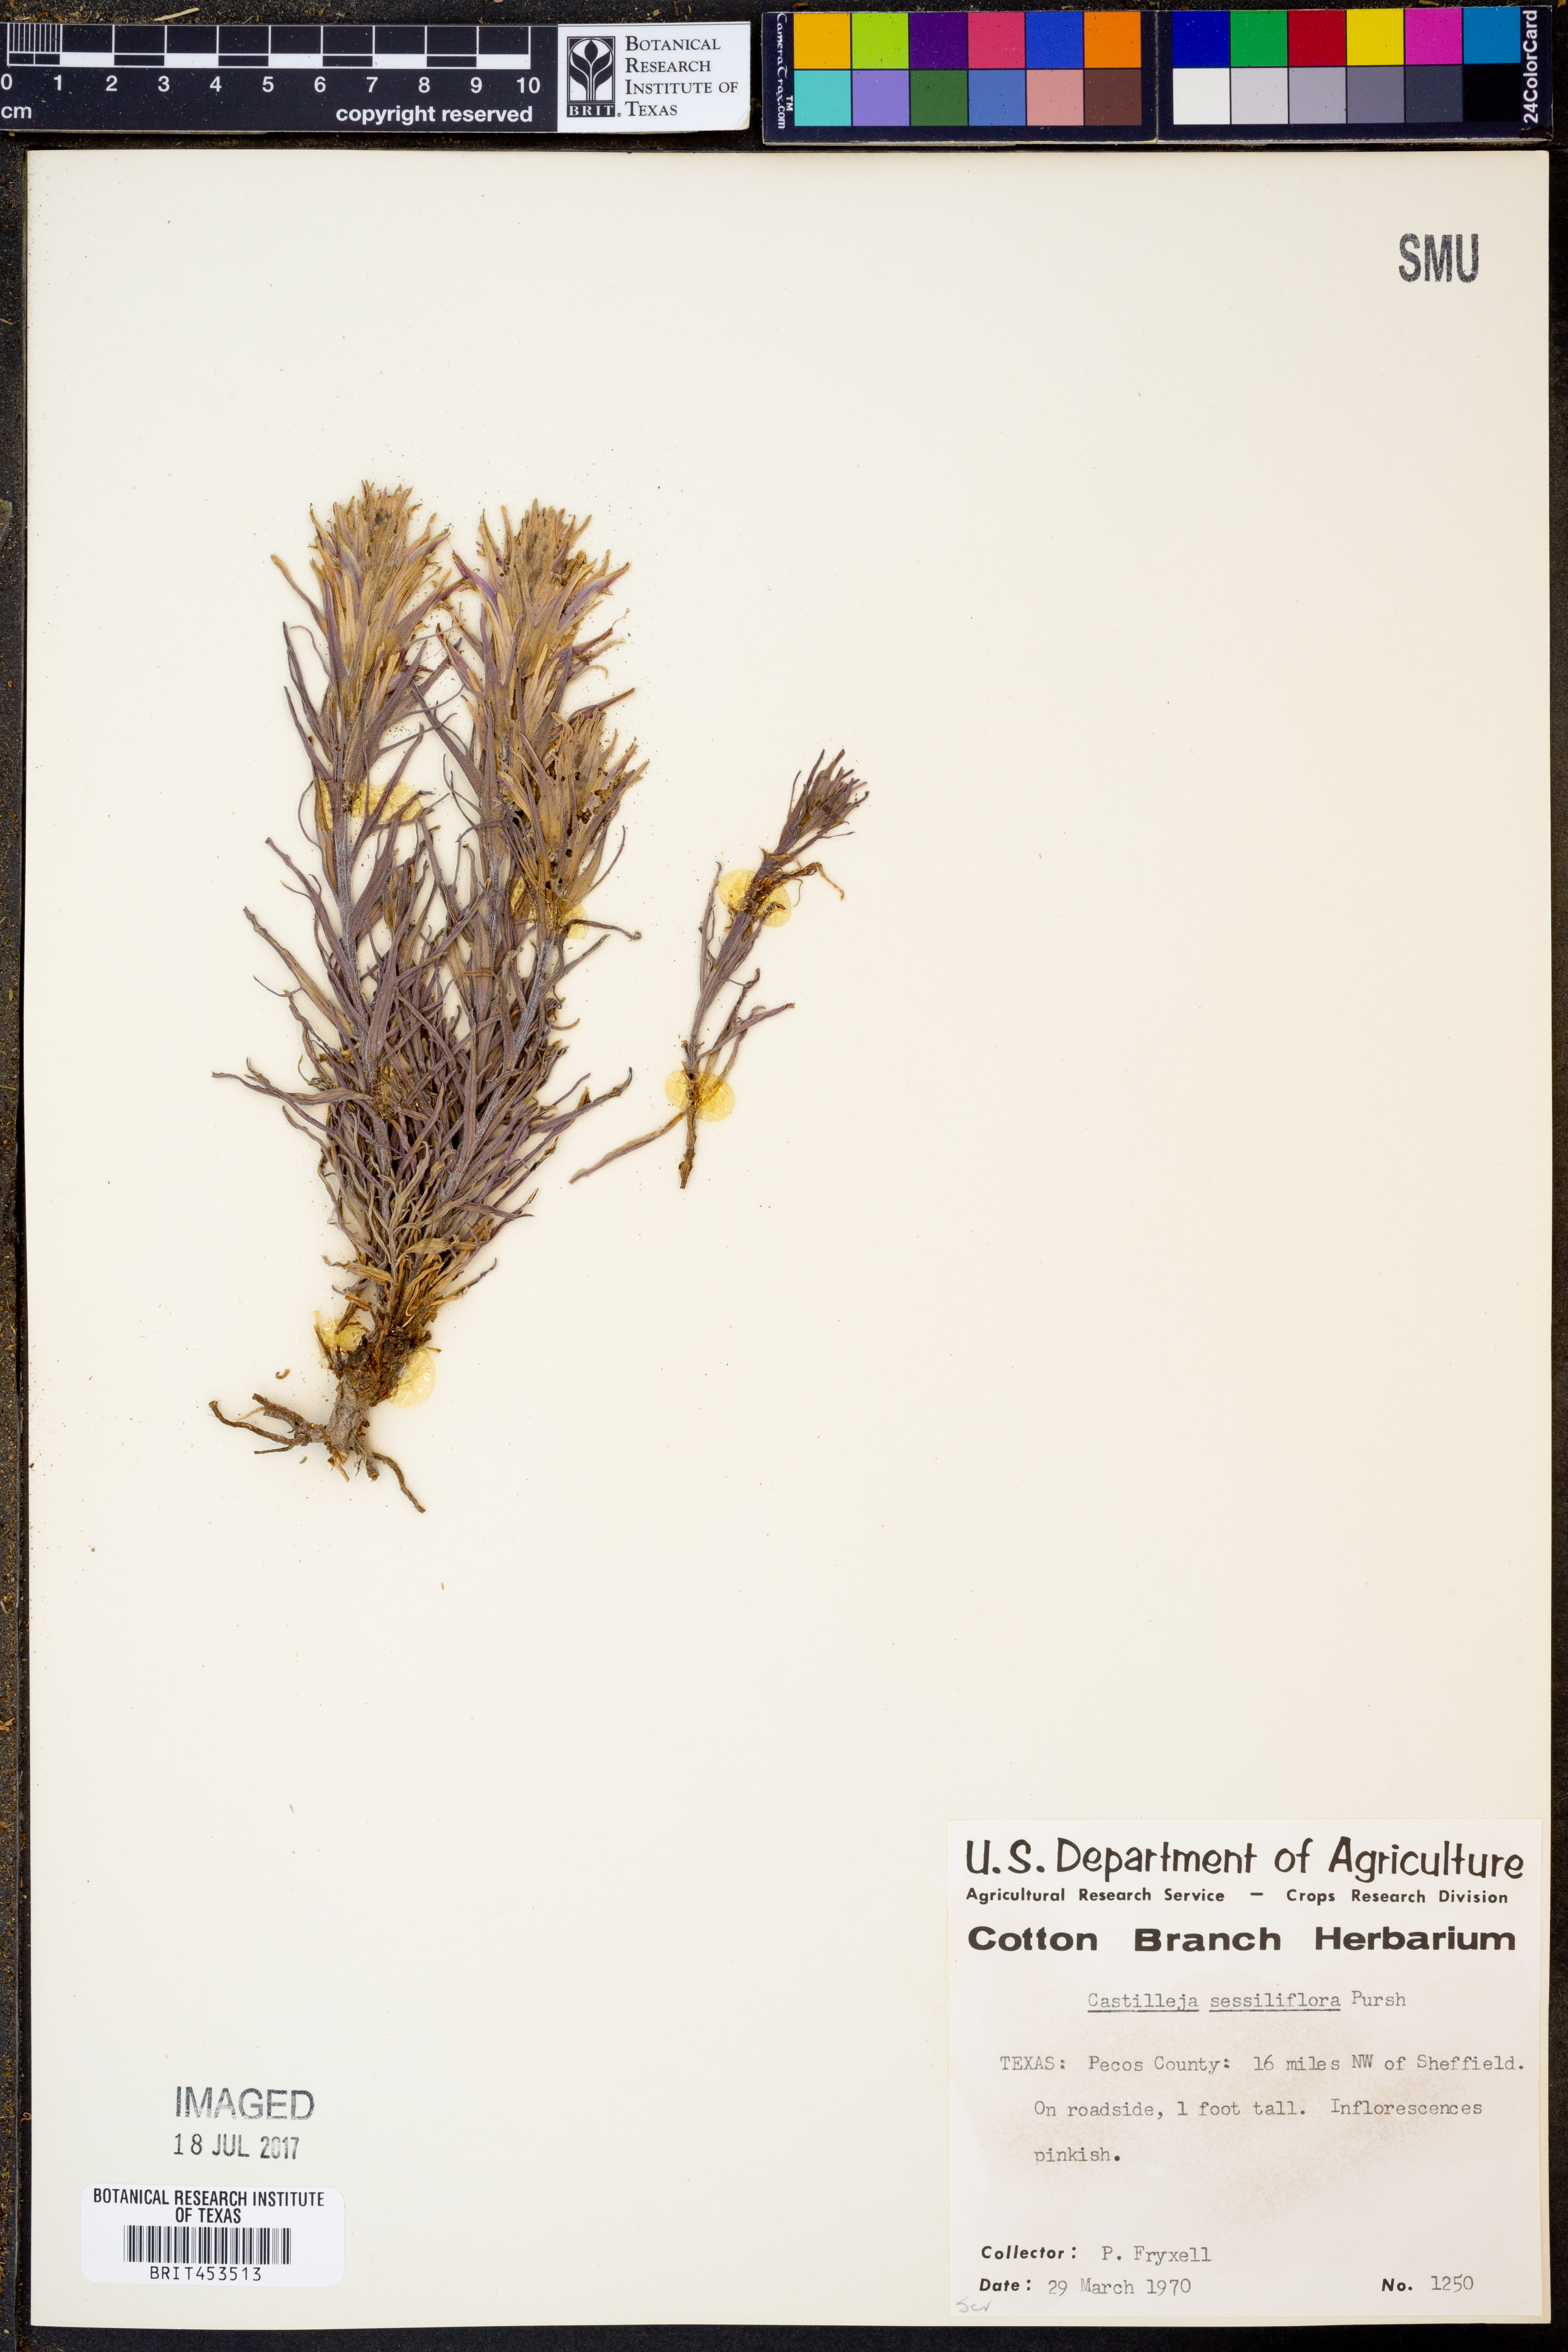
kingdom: Plantae
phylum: Tracheophyta
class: Magnoliopsida
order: Lamiales
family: Orobanchaceae
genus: Castilleja
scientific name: Castilleja sessiliflora
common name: Downy paintbrush
